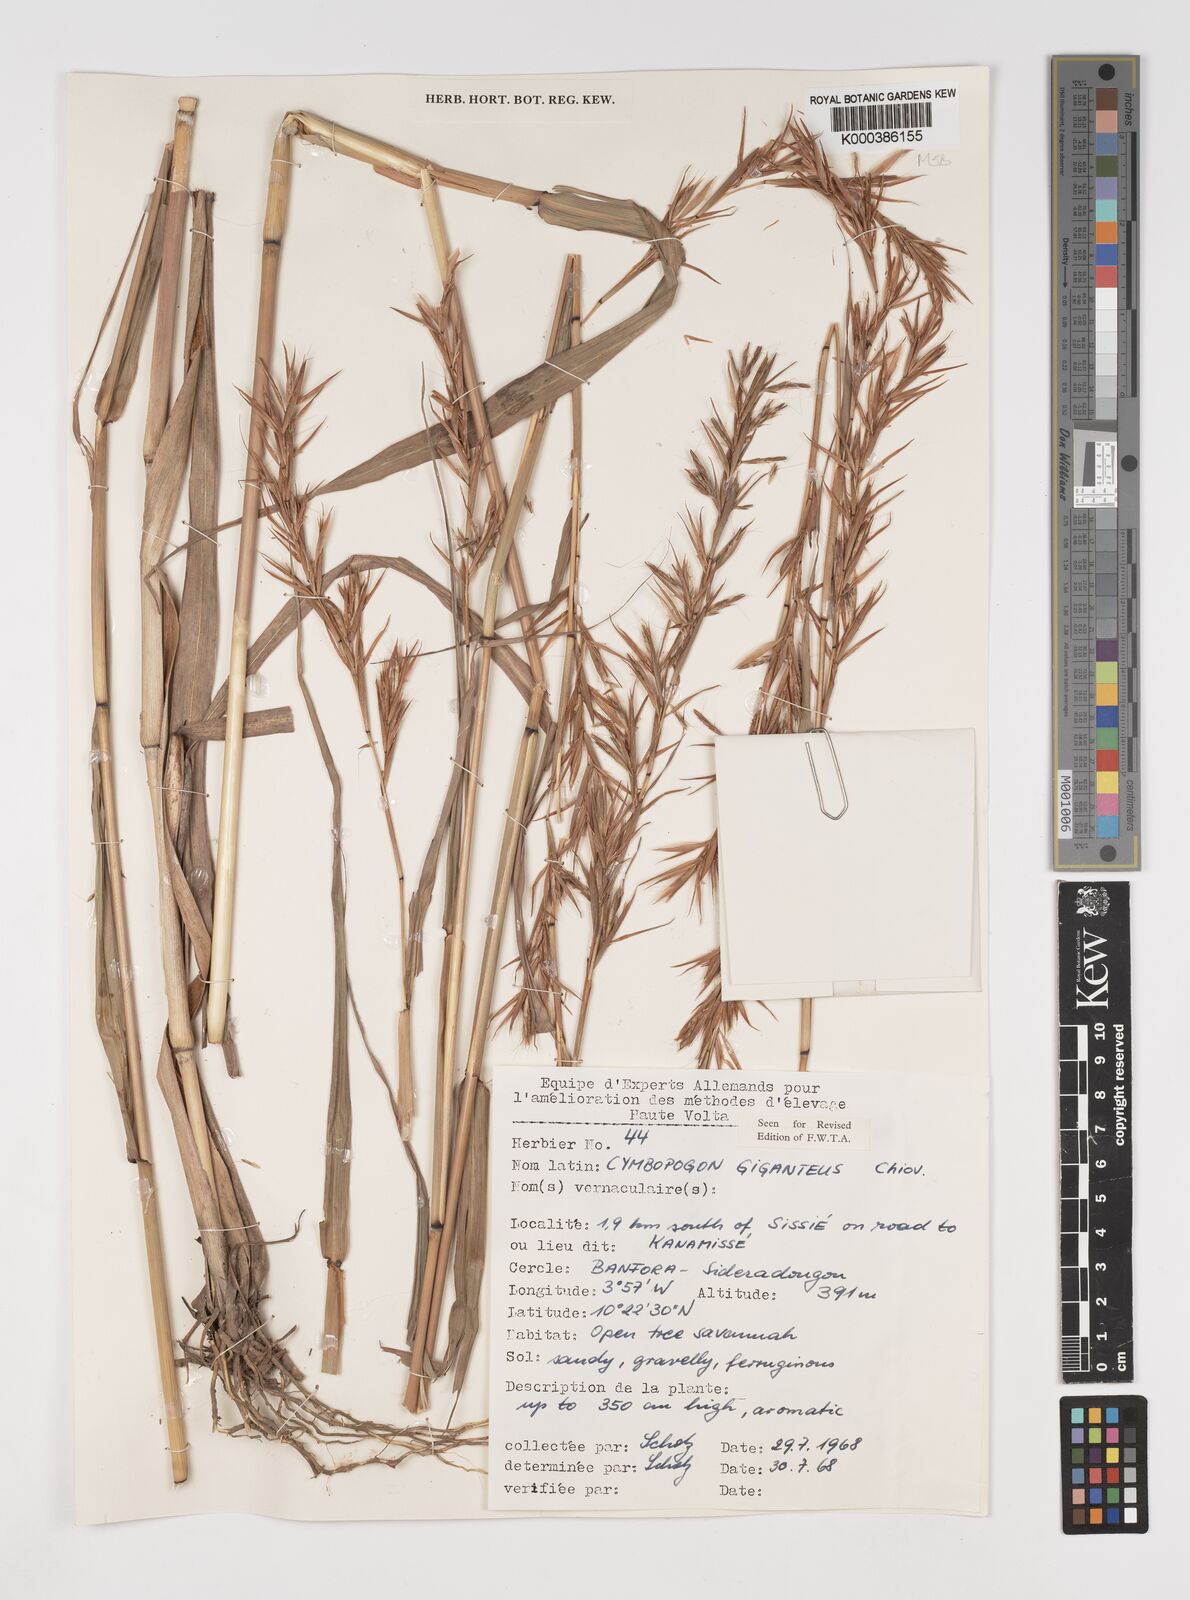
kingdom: Plantae
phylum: Tracheophyta
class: Liliopsida
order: Poales
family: Poaceae
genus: Cymbopogon
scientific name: Cymbopogon giganteus
